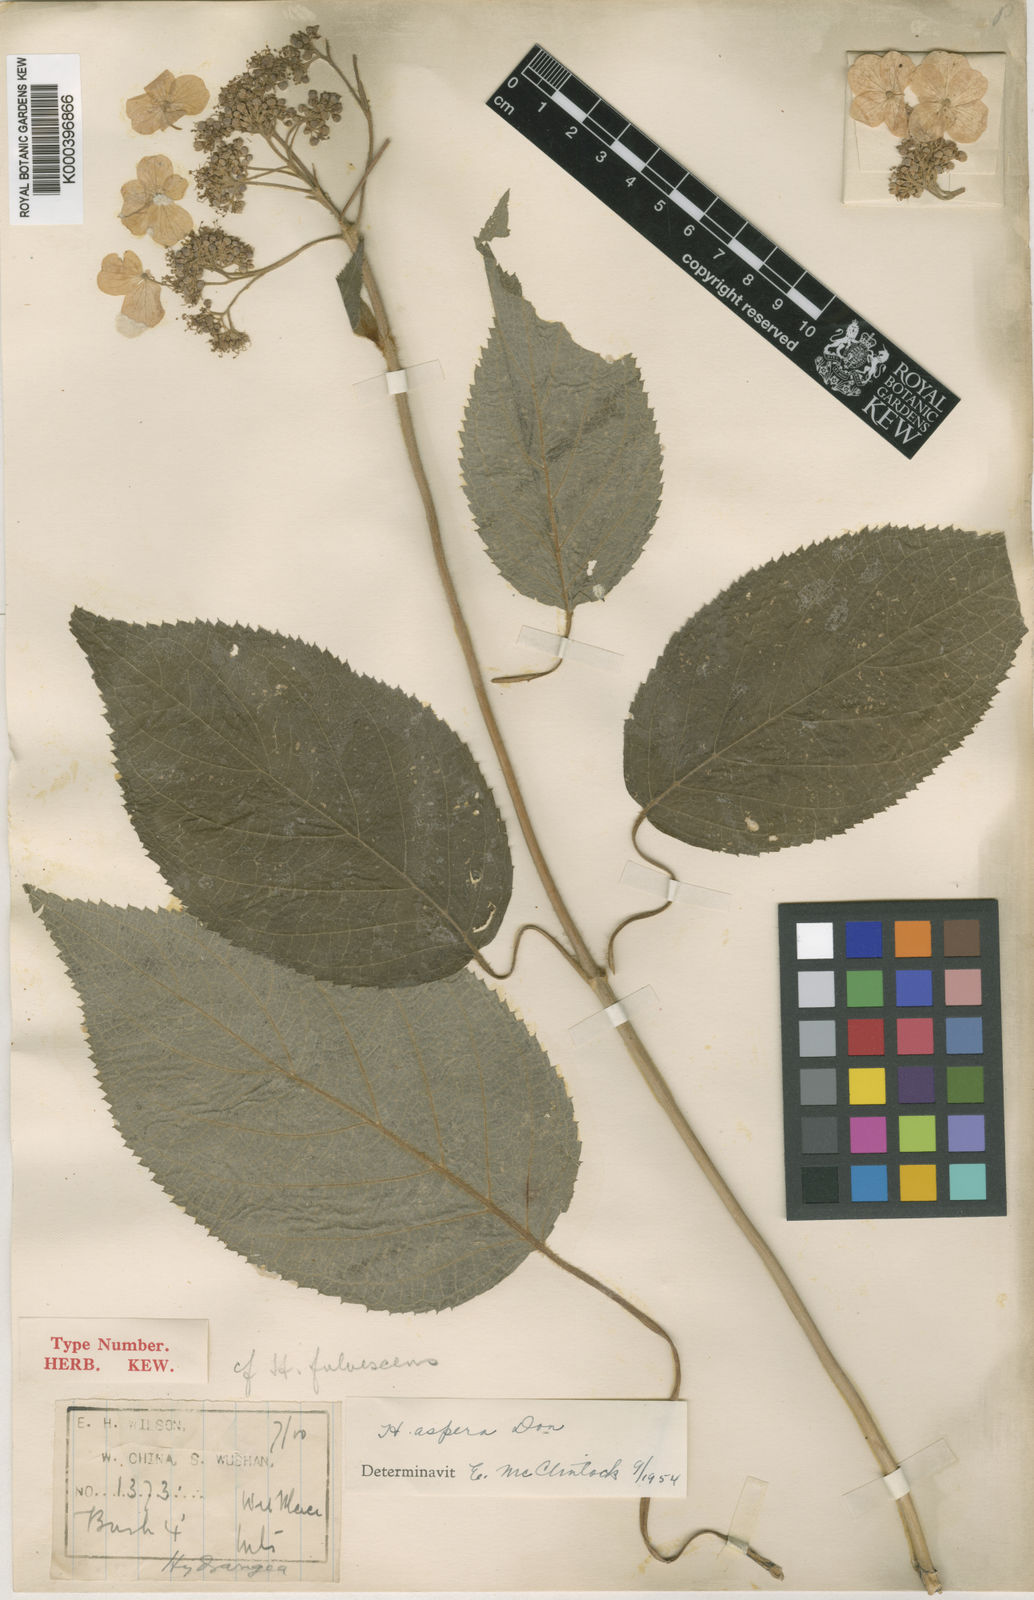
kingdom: Plantae
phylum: Tracheophyta
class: Magnoliopsida
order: Cornales
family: Hydrangeaceae
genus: Hydrangea
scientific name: Hydrangea aspera
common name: Rough-leaf hydrangea
